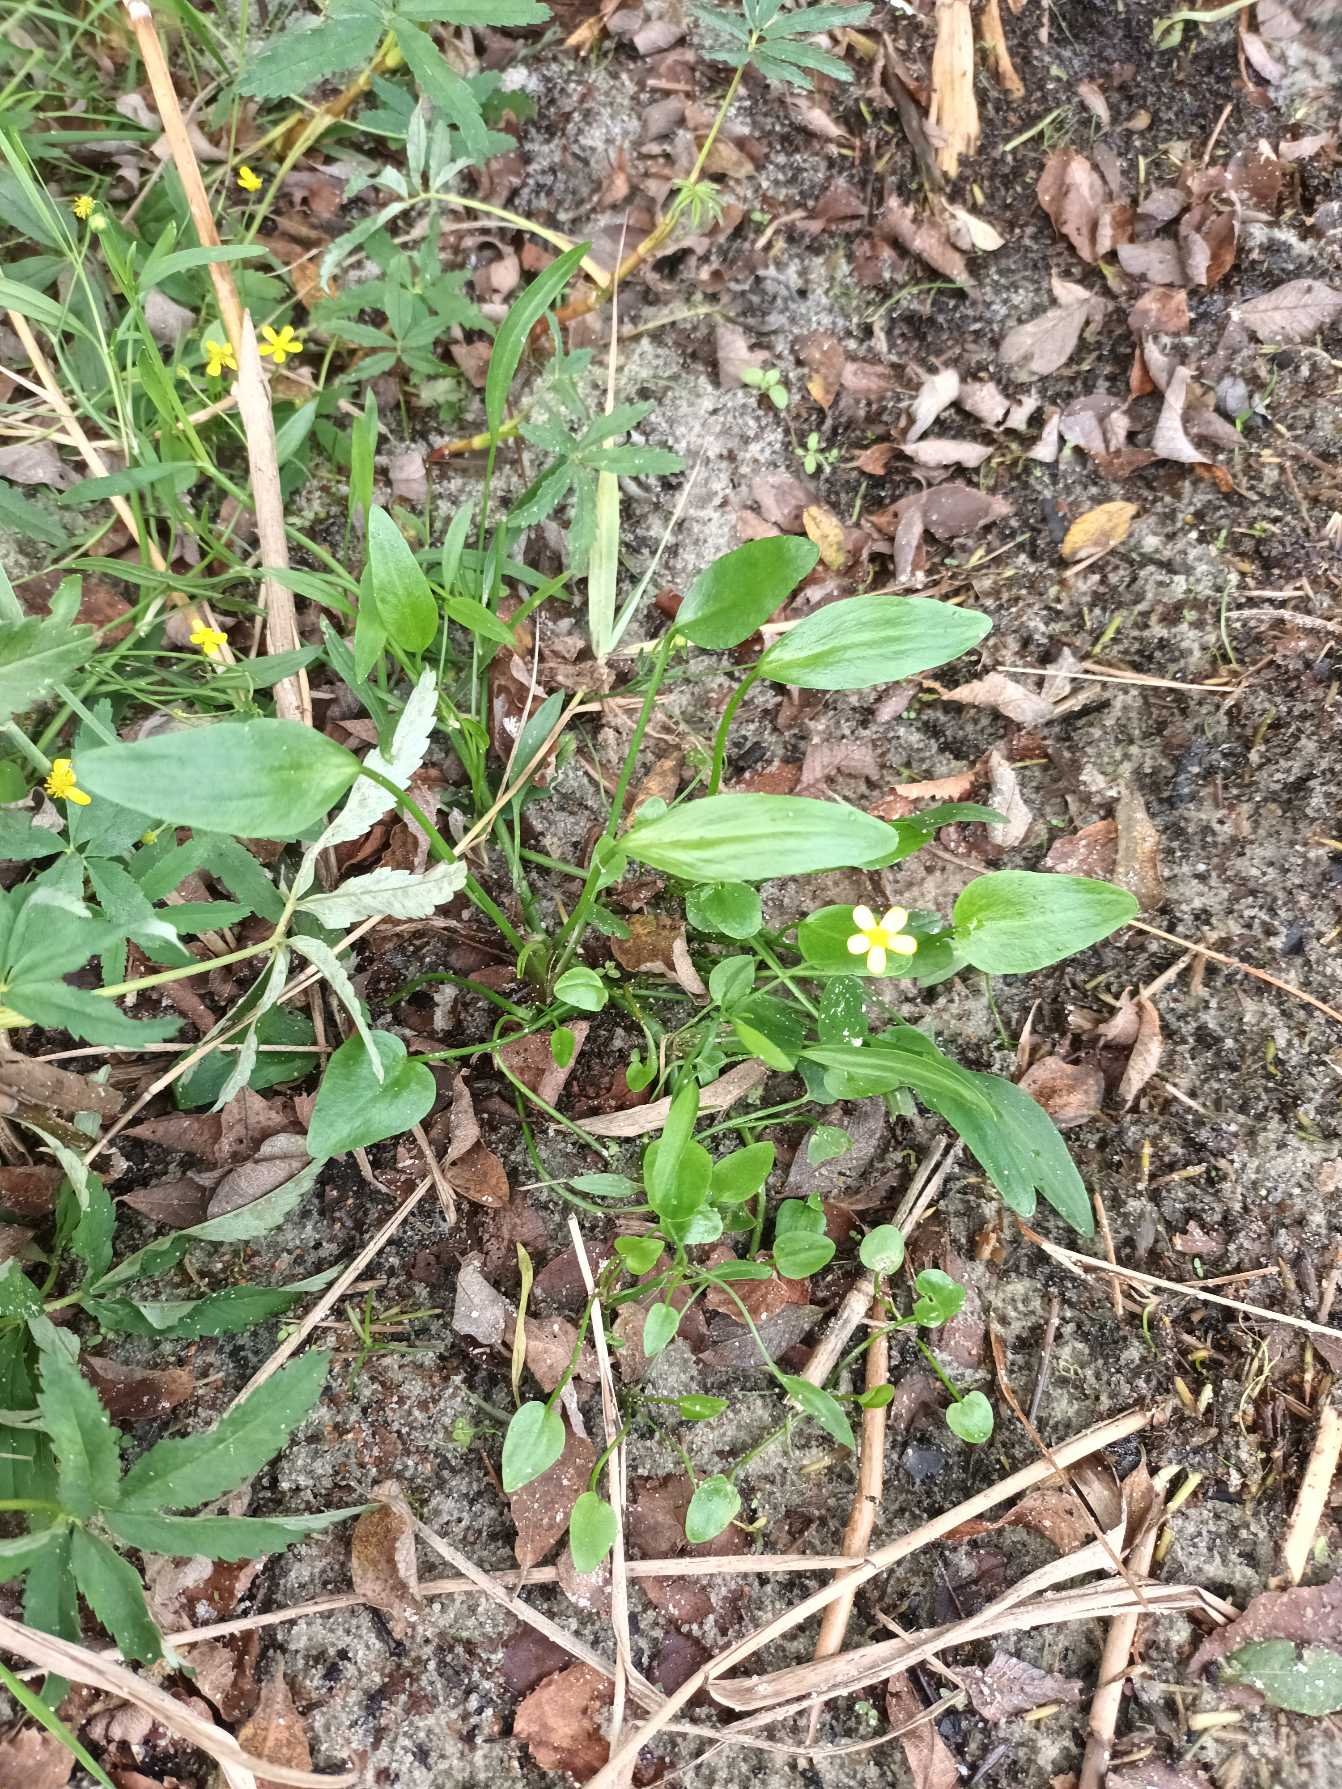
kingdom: Plantae
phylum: Tracheophyta
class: Magnoliopsida
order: Ranunculales
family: Ranunculaceae
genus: Ranunculus
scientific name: Ranunculus flammula
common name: Kær-ranunkel
